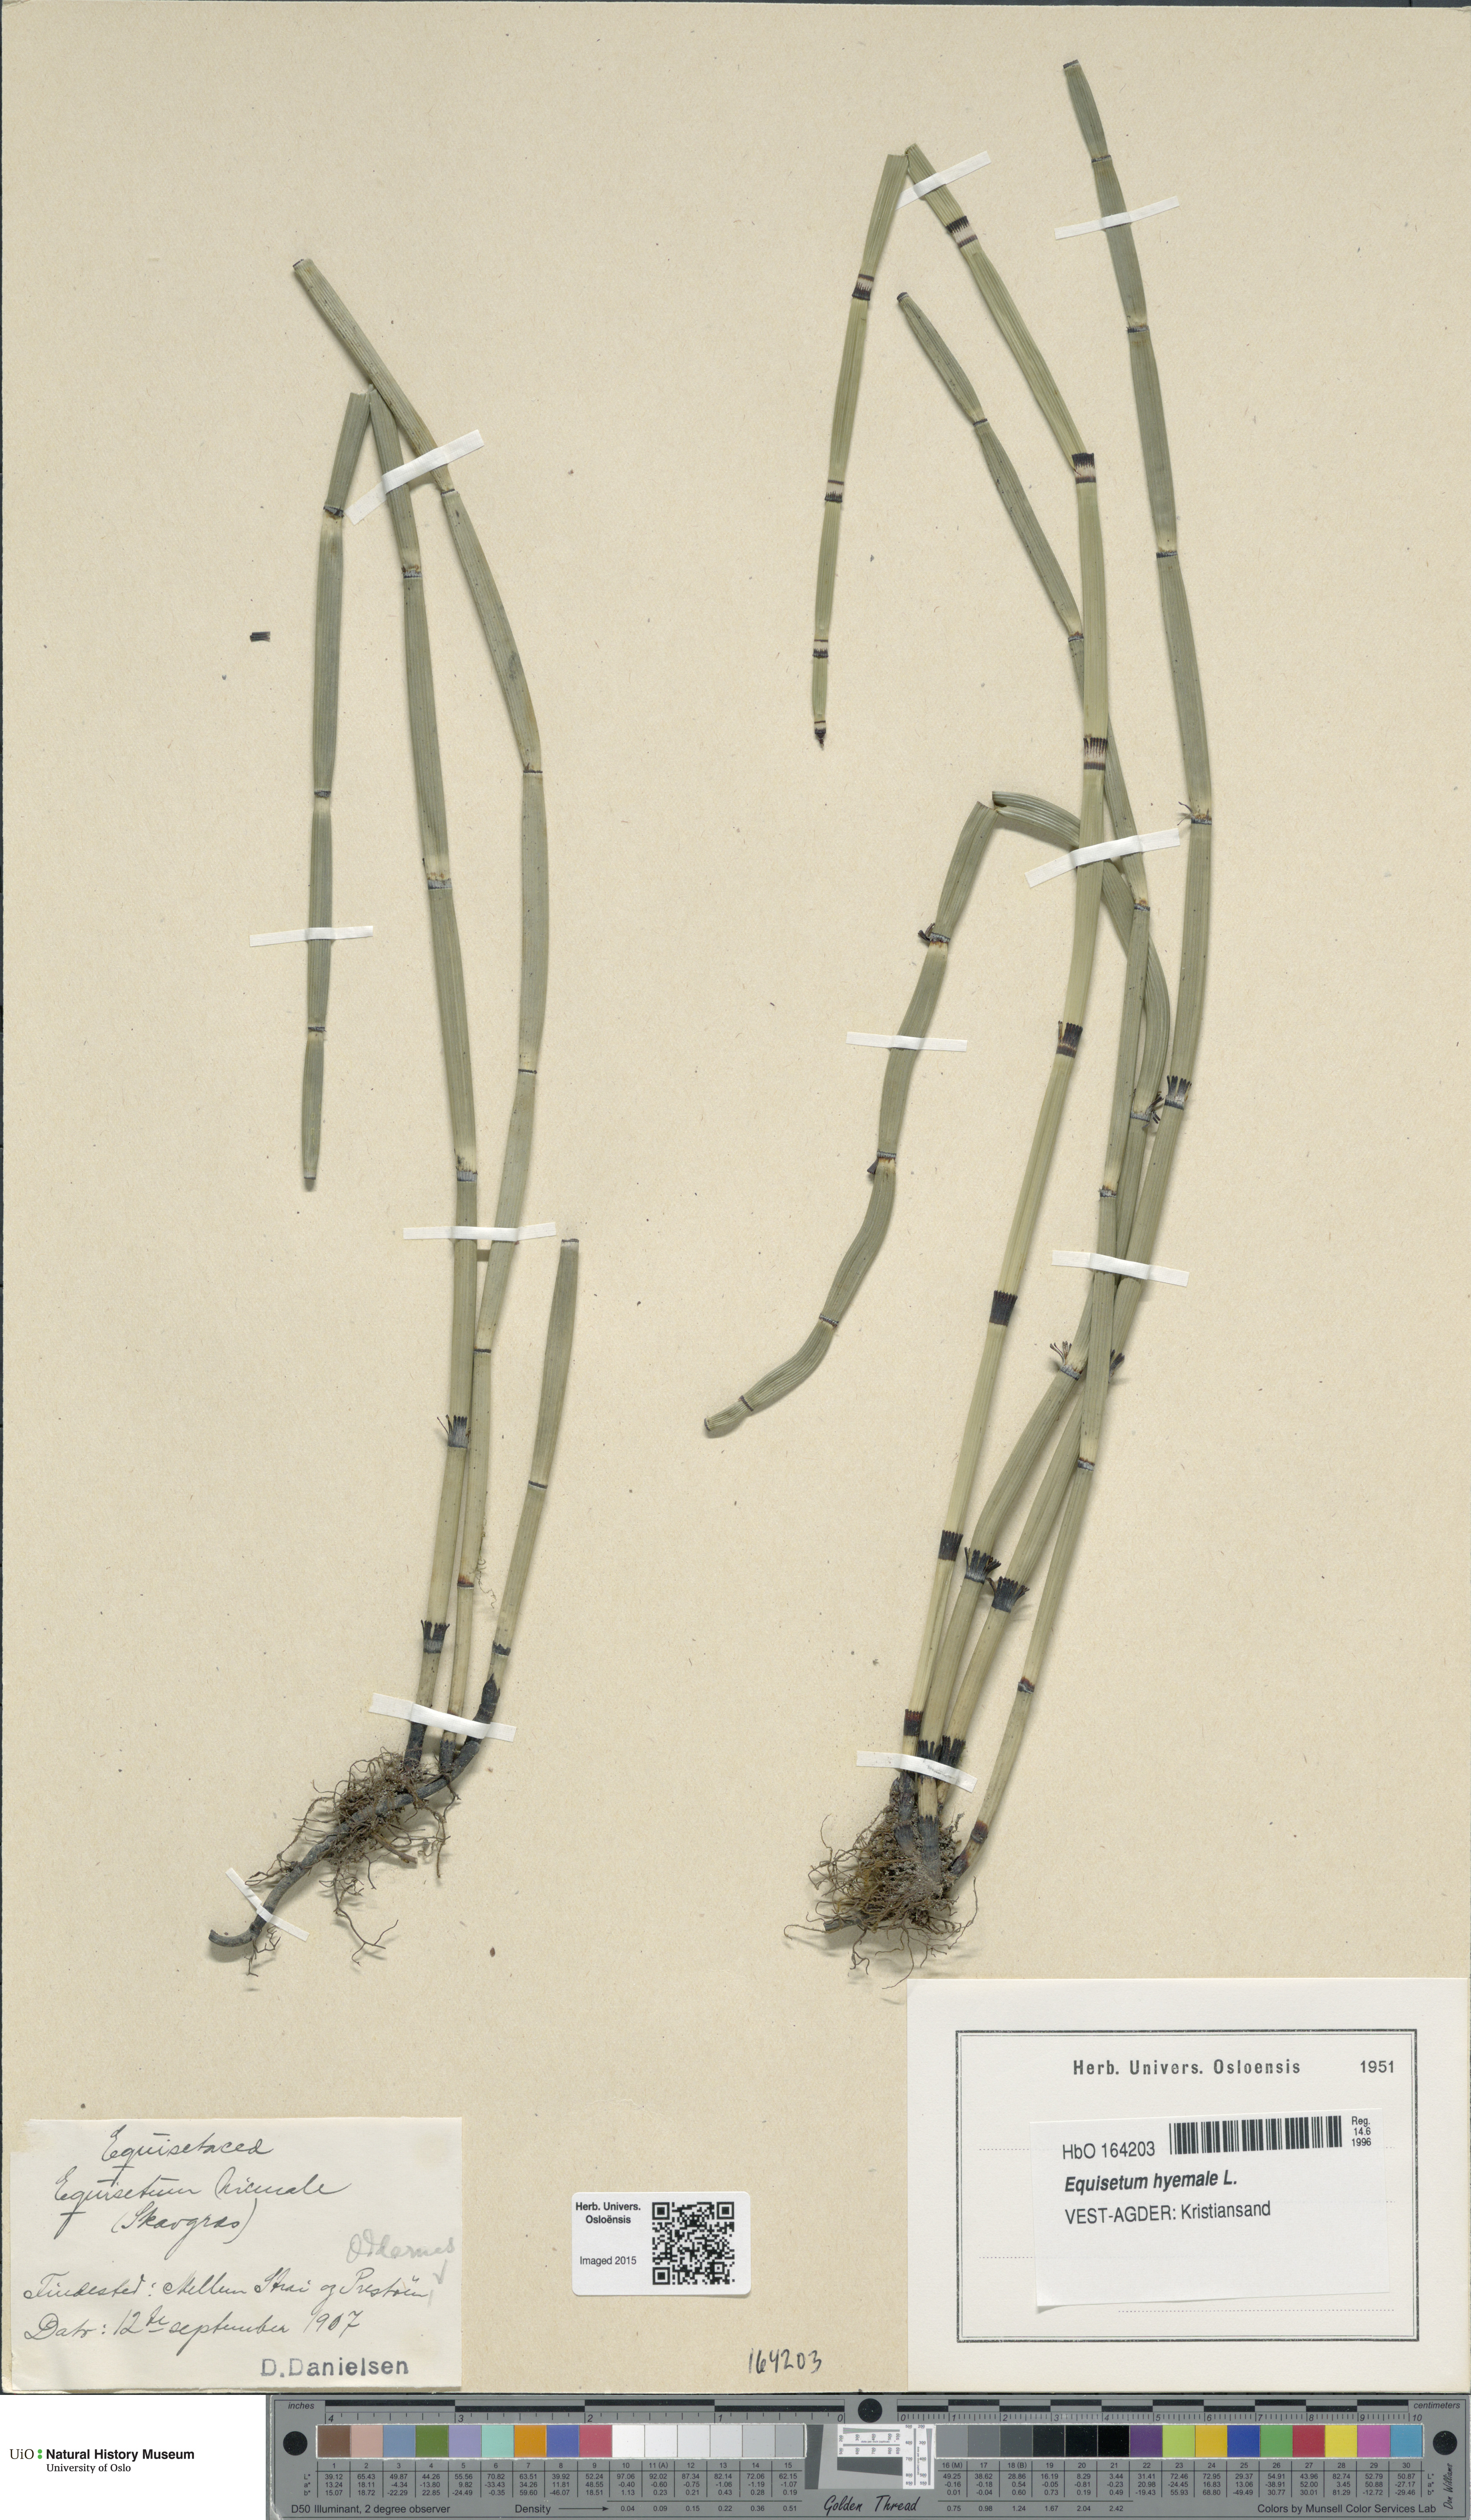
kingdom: Plantae
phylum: Tracheophyta
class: Polypodiopsida
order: Equisetales
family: Equisetaceae
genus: Equisetum
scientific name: Equisetum hyemale
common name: Rough horsetail
